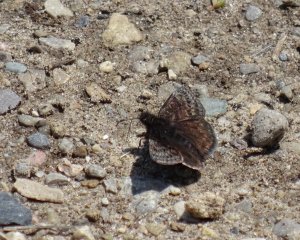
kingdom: Animalia
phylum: Arthropoda
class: Insecta
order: Lepidoptera
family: Hesperiidae
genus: Erynnis
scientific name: Erynnis
